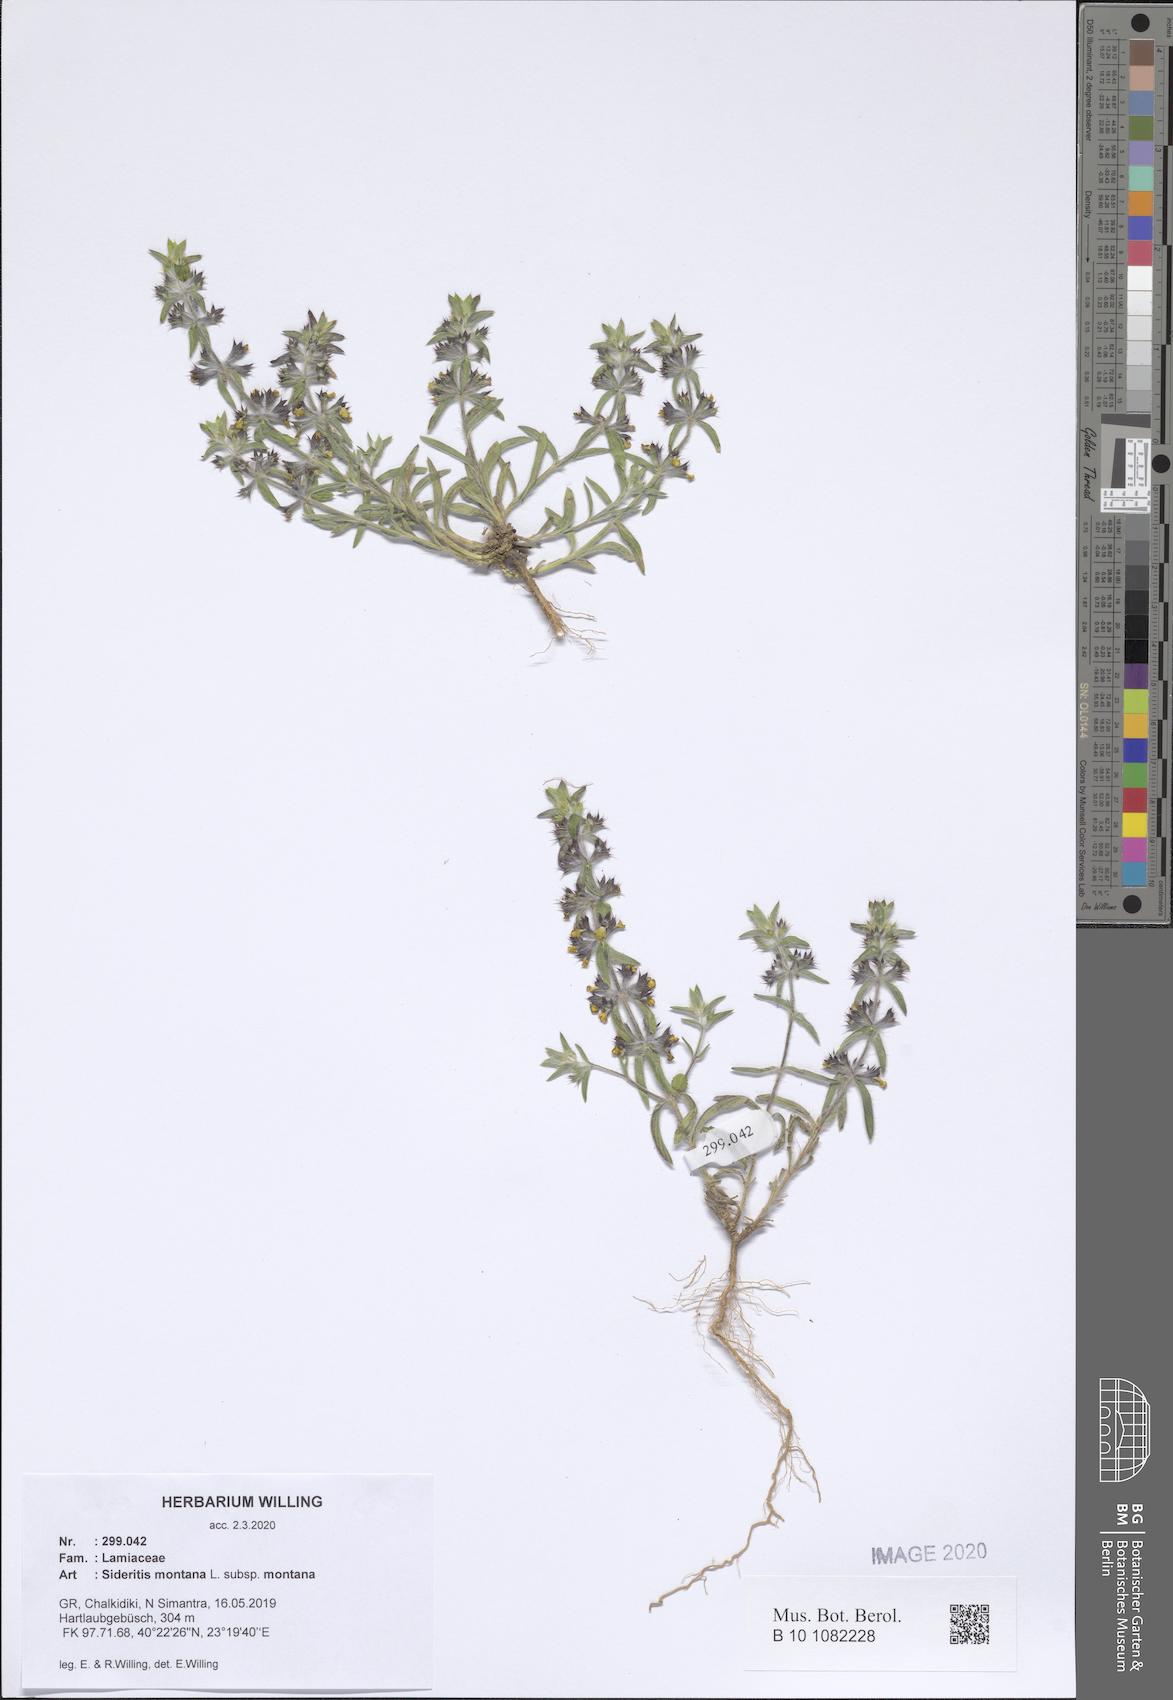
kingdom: Plantae
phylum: Tracheophyta
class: Magnoliopsida
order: Lamiales
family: Lamiaceae
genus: Sideritis
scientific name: Sideritis montana
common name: Mountain ironwort
